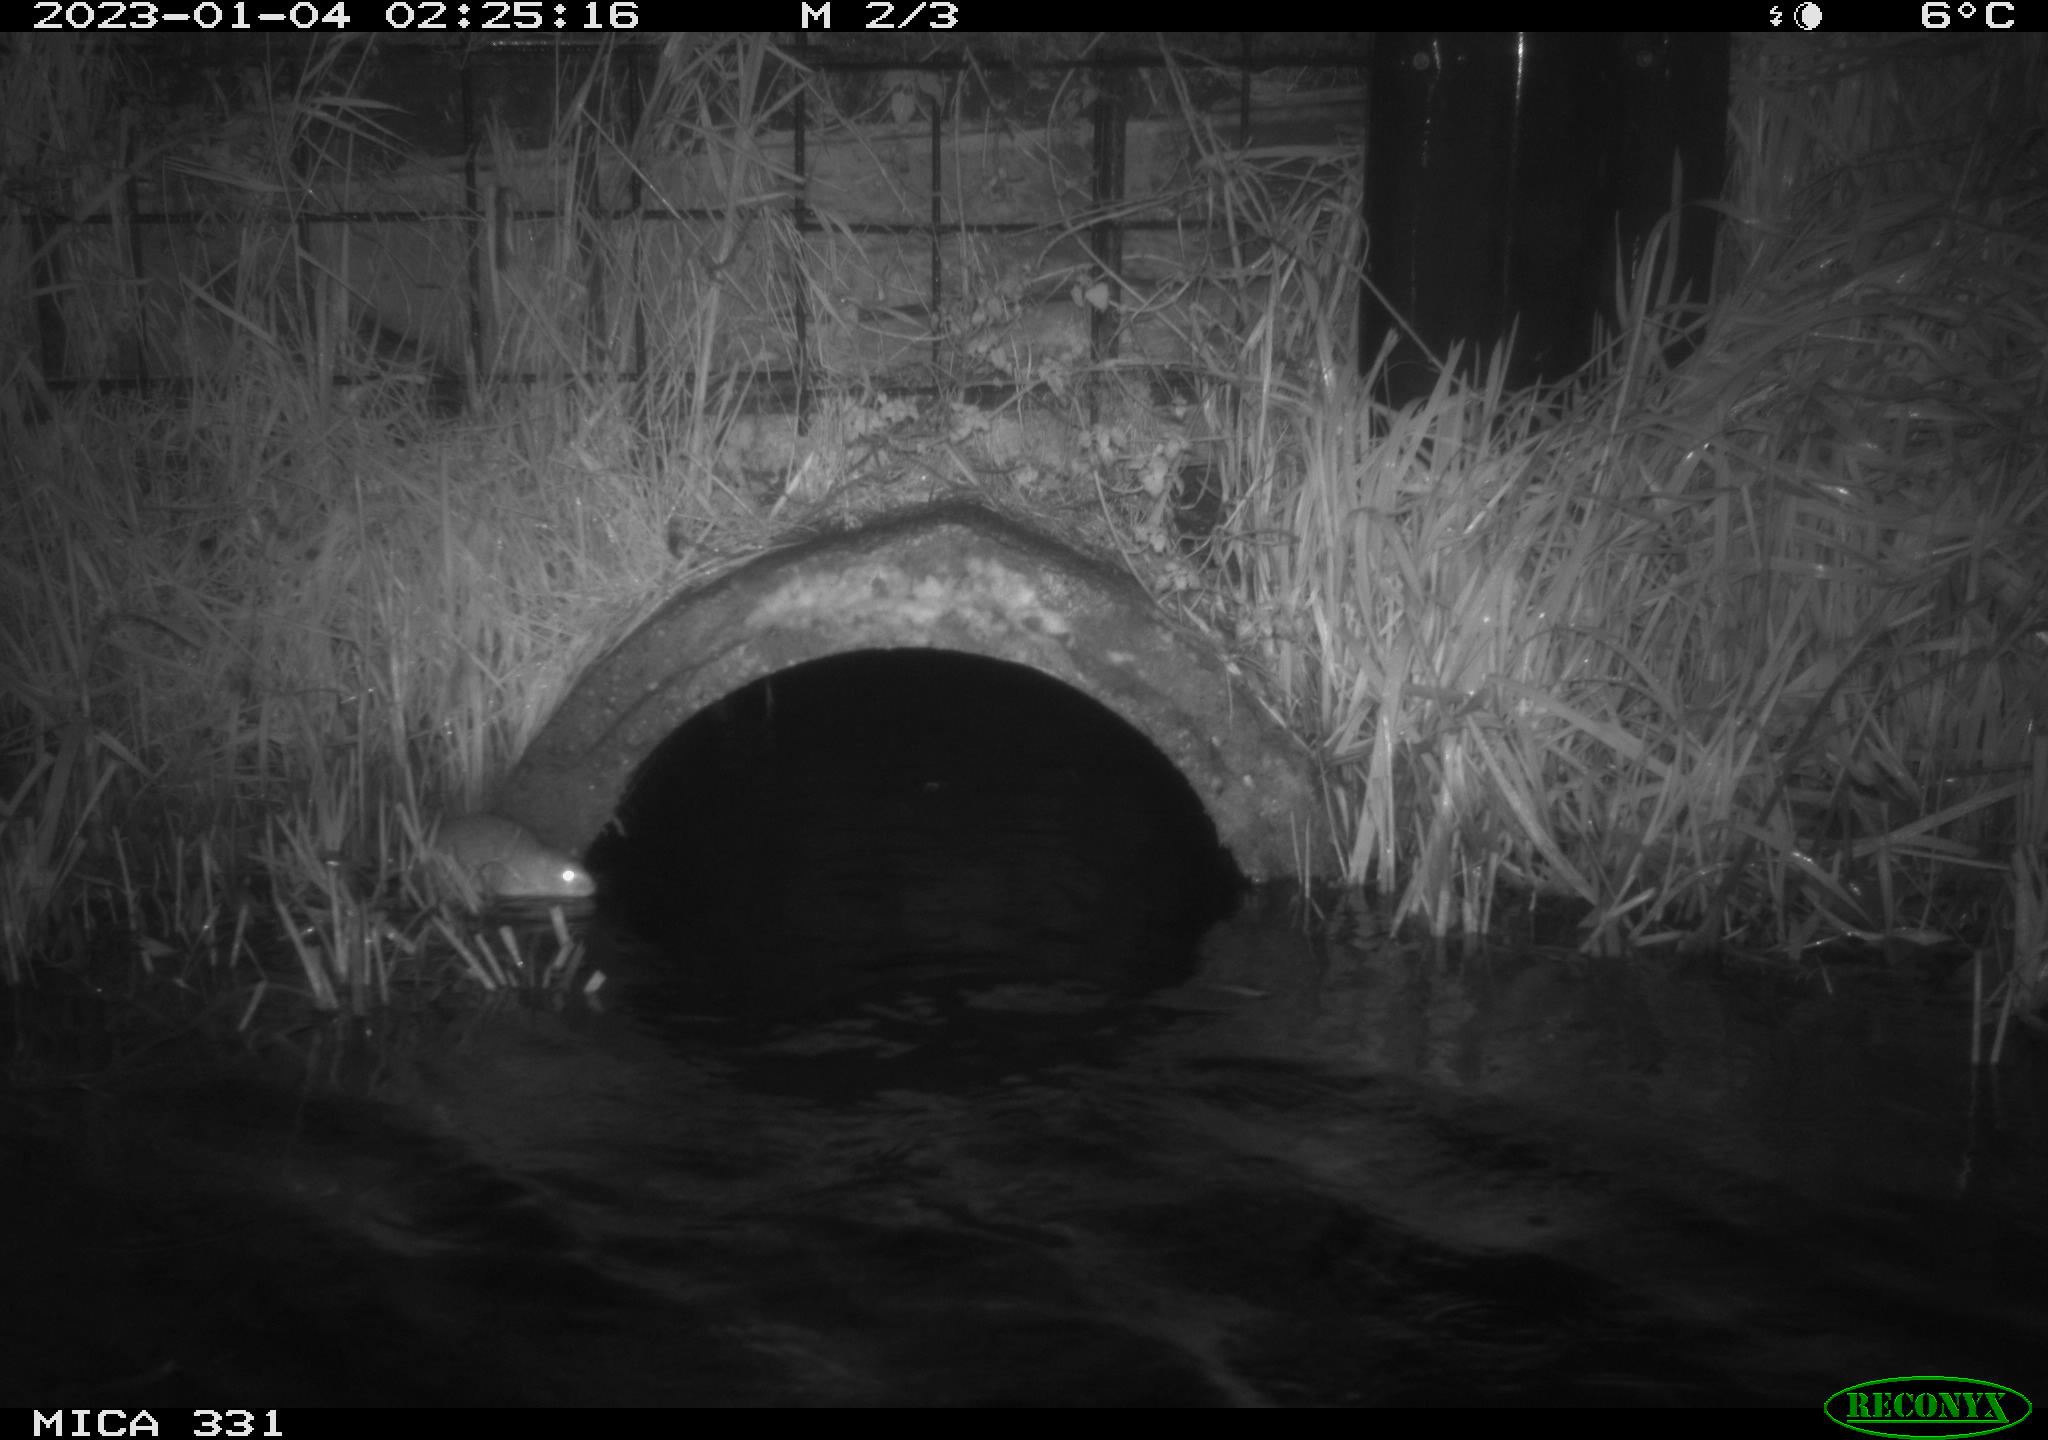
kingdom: Animalia
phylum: Chordata
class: Mammalia
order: Rodentia
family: Muridae
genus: Rattus
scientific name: Rattus norvegicus
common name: Brown rat
